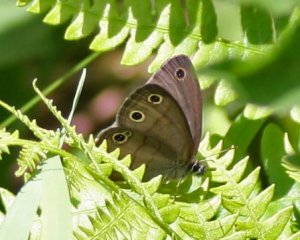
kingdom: Animalia
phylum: Arthropoda
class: Insecta
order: Lepidoptera
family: Nymphalidae
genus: Euptychia
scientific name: Euptychia cymela
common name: Little Wood Satyr
